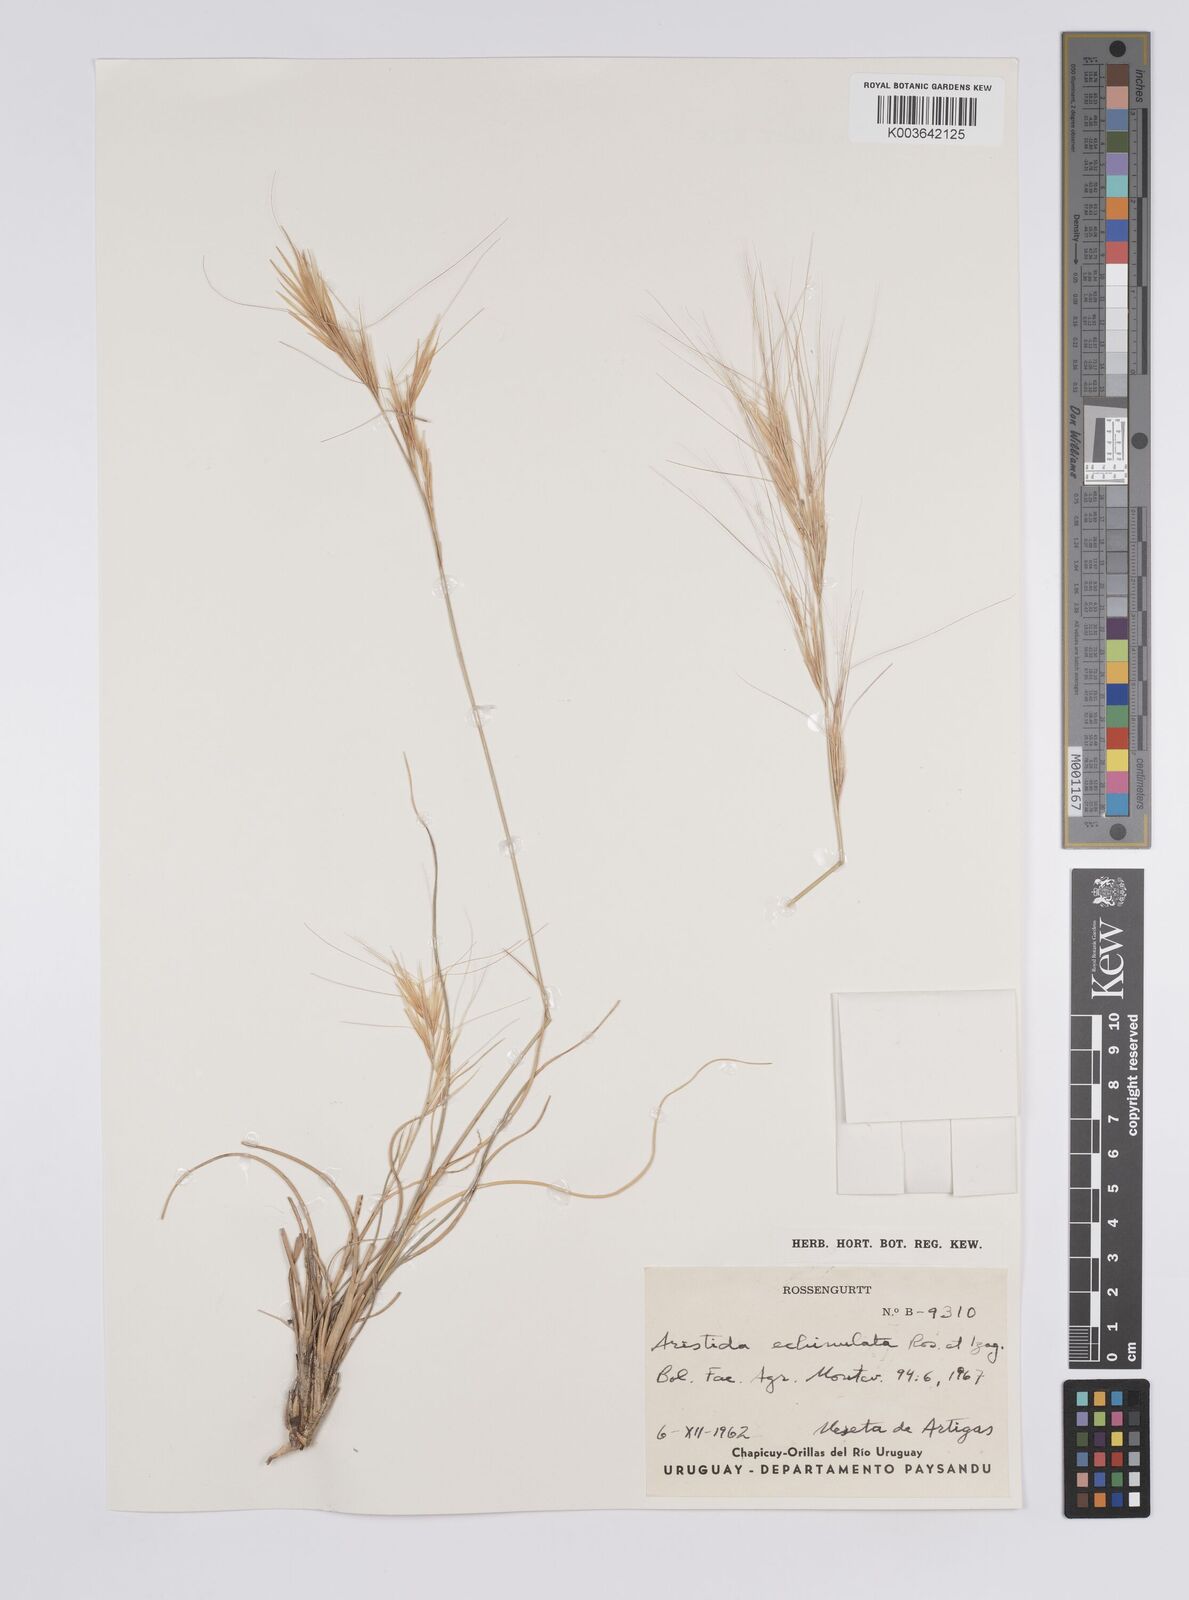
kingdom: Plantae
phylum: Tracheophyta
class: Liliopsida
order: Poales
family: Poaceae
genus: Aristida
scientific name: Aristida echinulata
